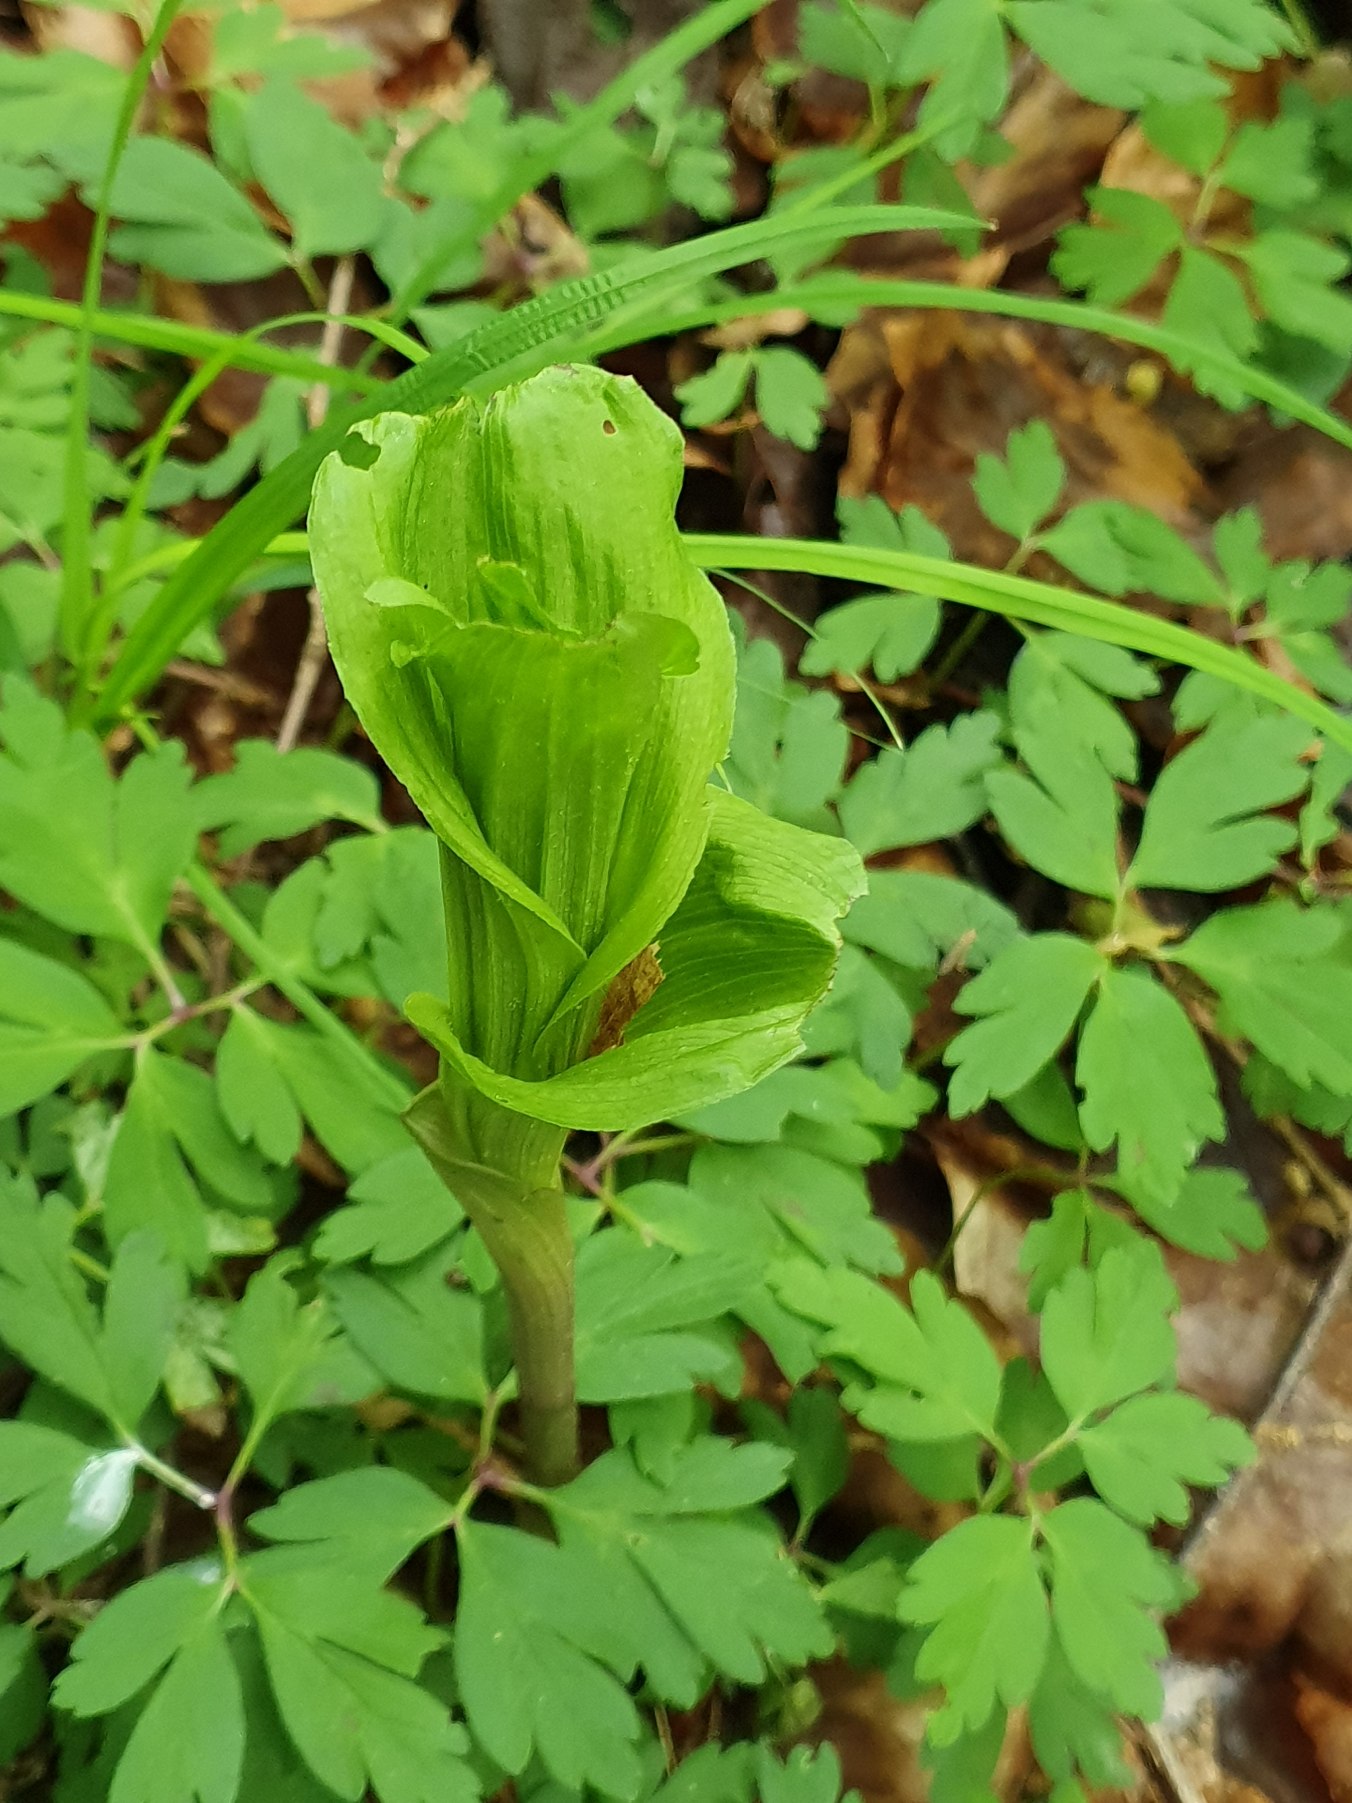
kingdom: Plantae
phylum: Tracheophyta
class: Liliopsida
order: Asparagales
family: Orchidaceae
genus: Epipactis
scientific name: Epipactis helleborine
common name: Skov-hullæbe
